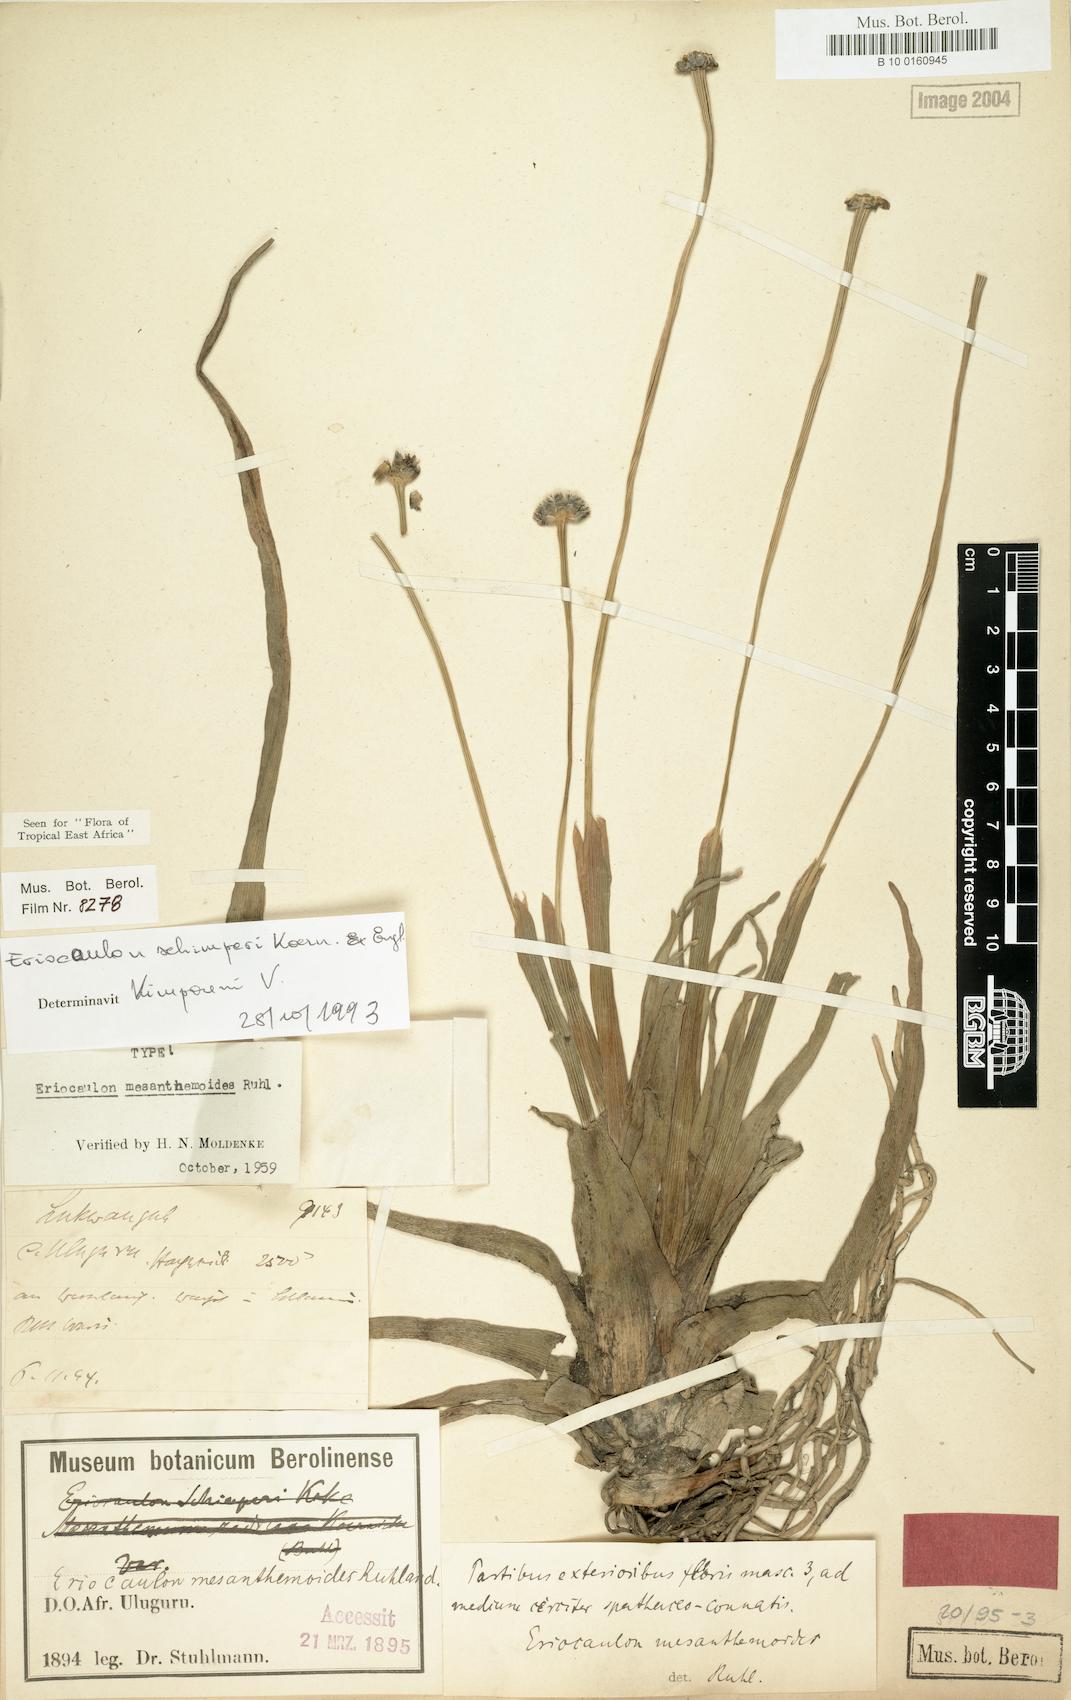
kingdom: Plantae
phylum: Tracheophyta
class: Liliopsida
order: Poales
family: Eriocaulaceae
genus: Eriocaulon
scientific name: Eriocaulon schimperi
